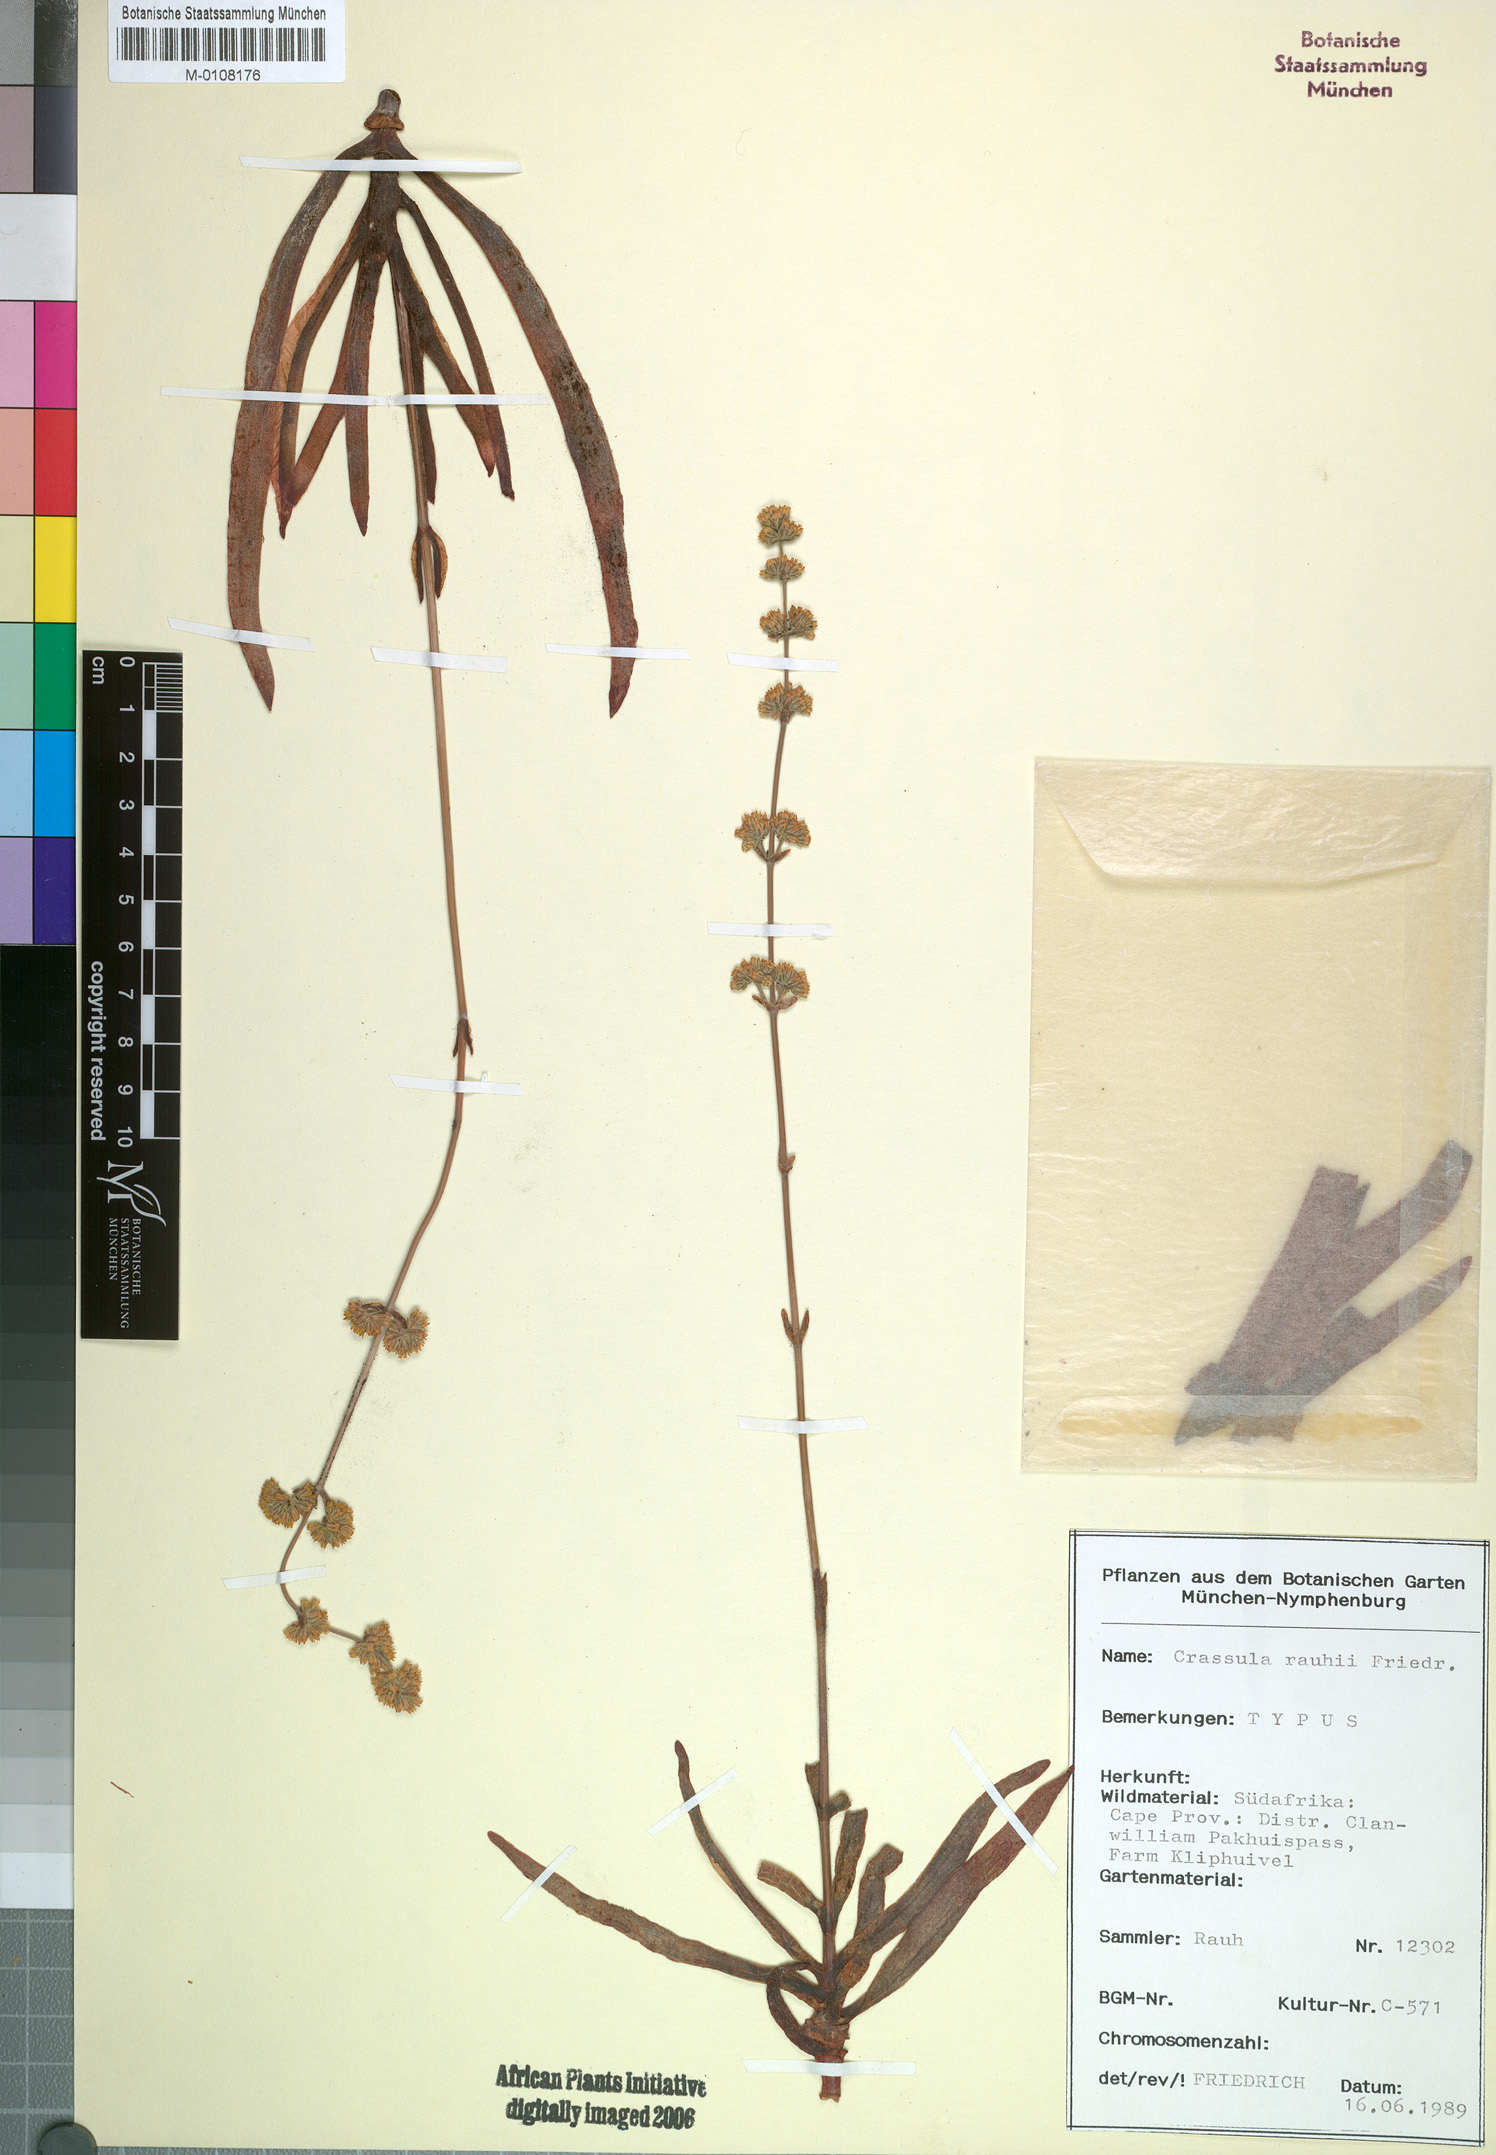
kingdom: Plantae
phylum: Tracheophyta
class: Magnoliopsida
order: Saxifragales
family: Crassulaceae
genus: Crassula
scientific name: Crassula subacaulis
